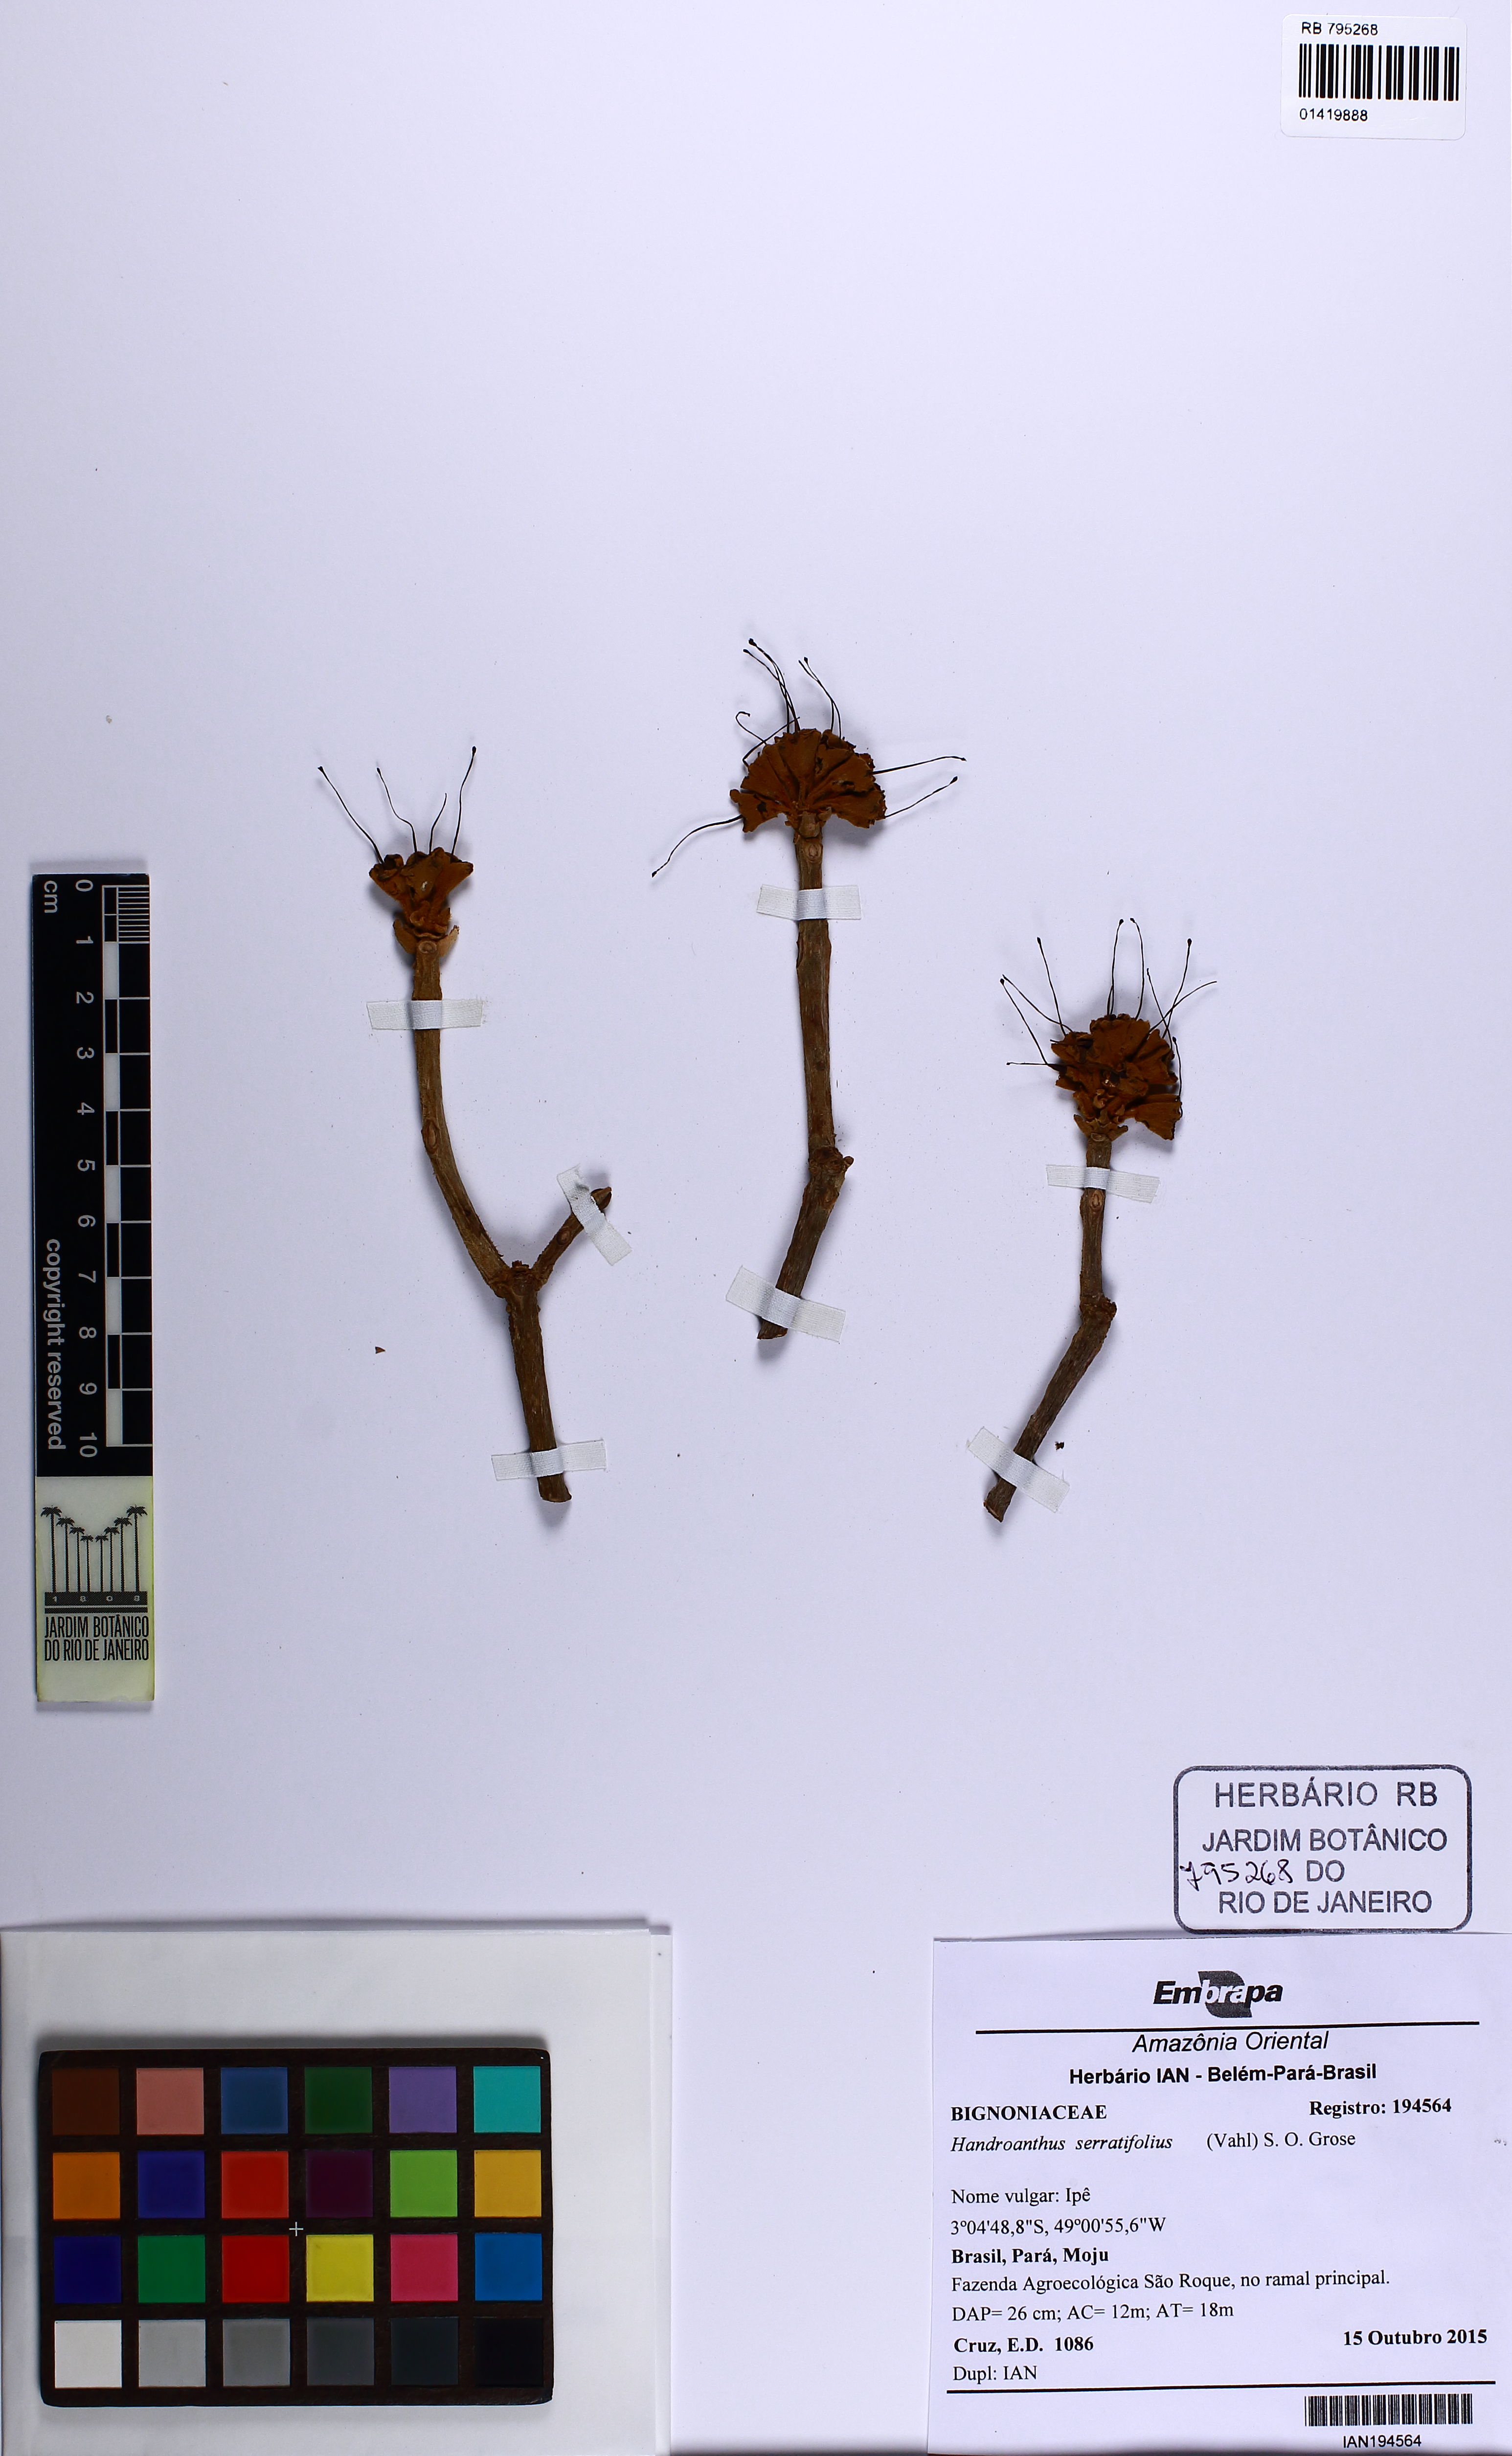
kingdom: Plantae
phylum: Tracheophyta
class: Magnoliopsida
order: Lamiales
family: Bignoniaceae
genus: Handroanthus
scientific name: Handroanthus serratifolius
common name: Yellow ipe
